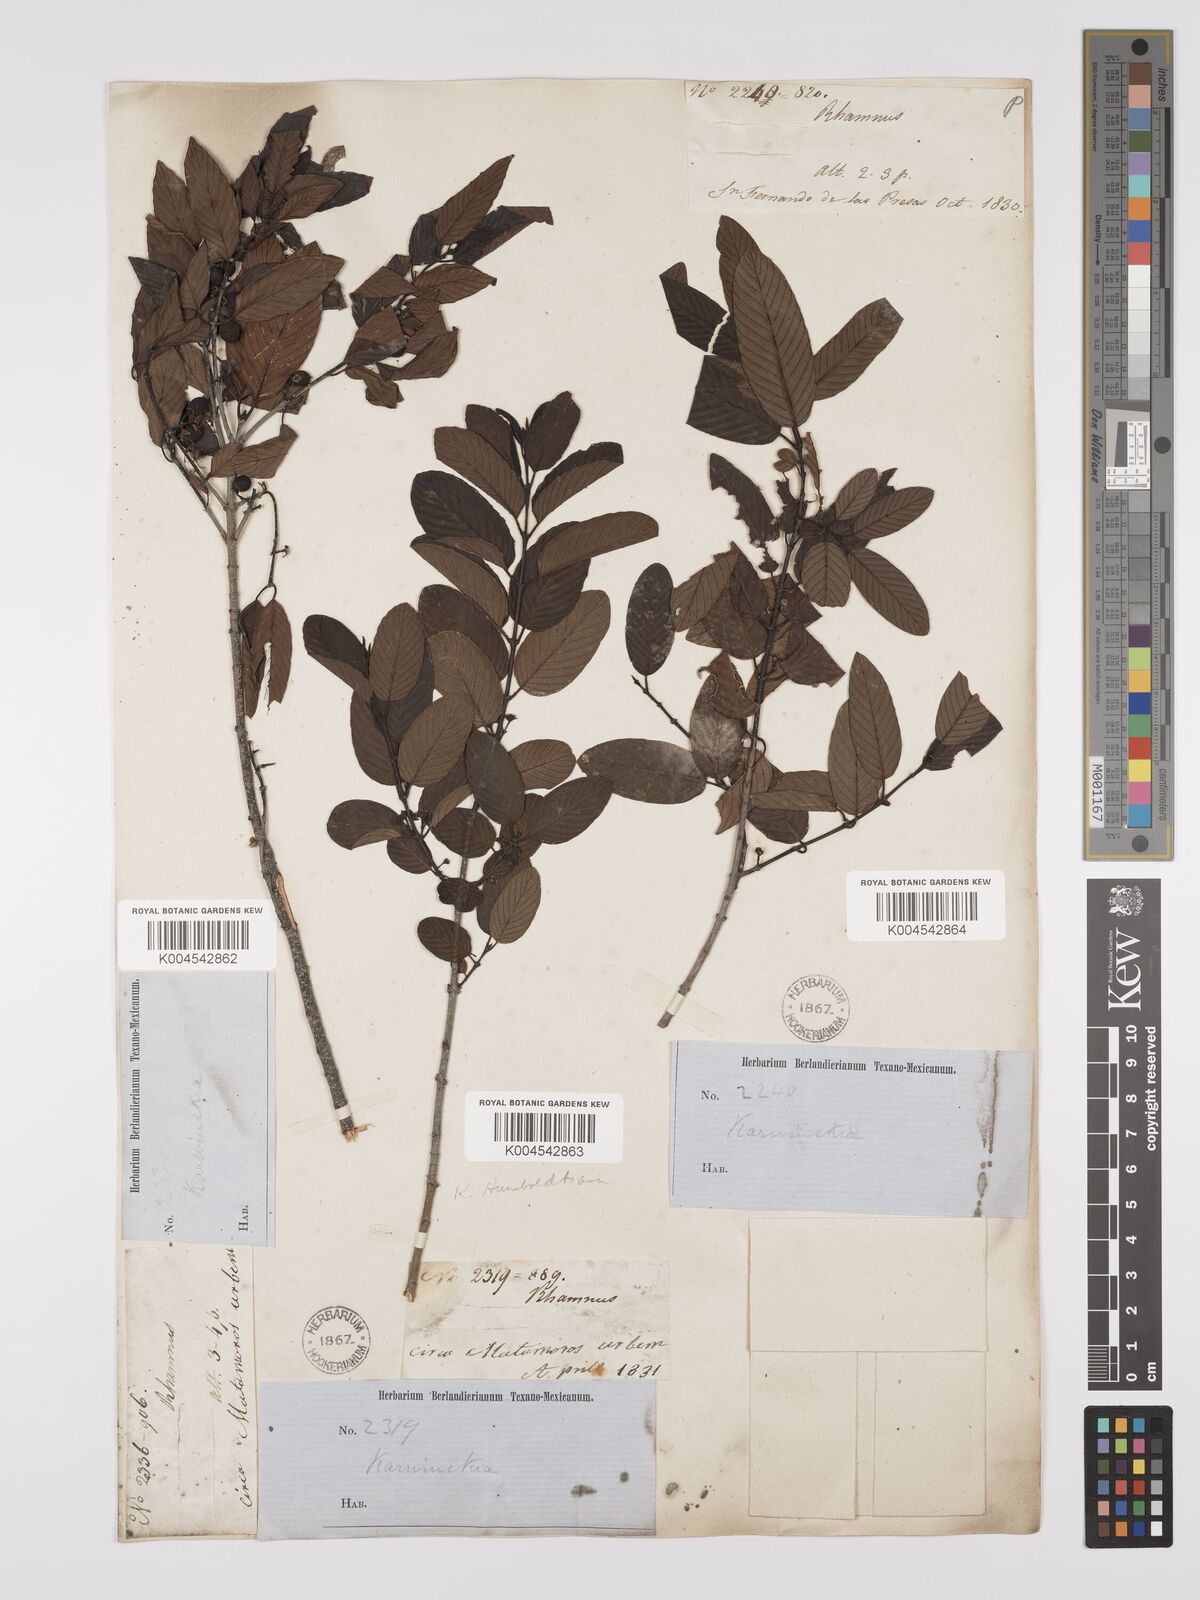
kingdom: Plantae
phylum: Tracheophyta
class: Magnoliopsida
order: Rosales
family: Rhamnaceae
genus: Karwinskia
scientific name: Karwinskia humboldtiana
